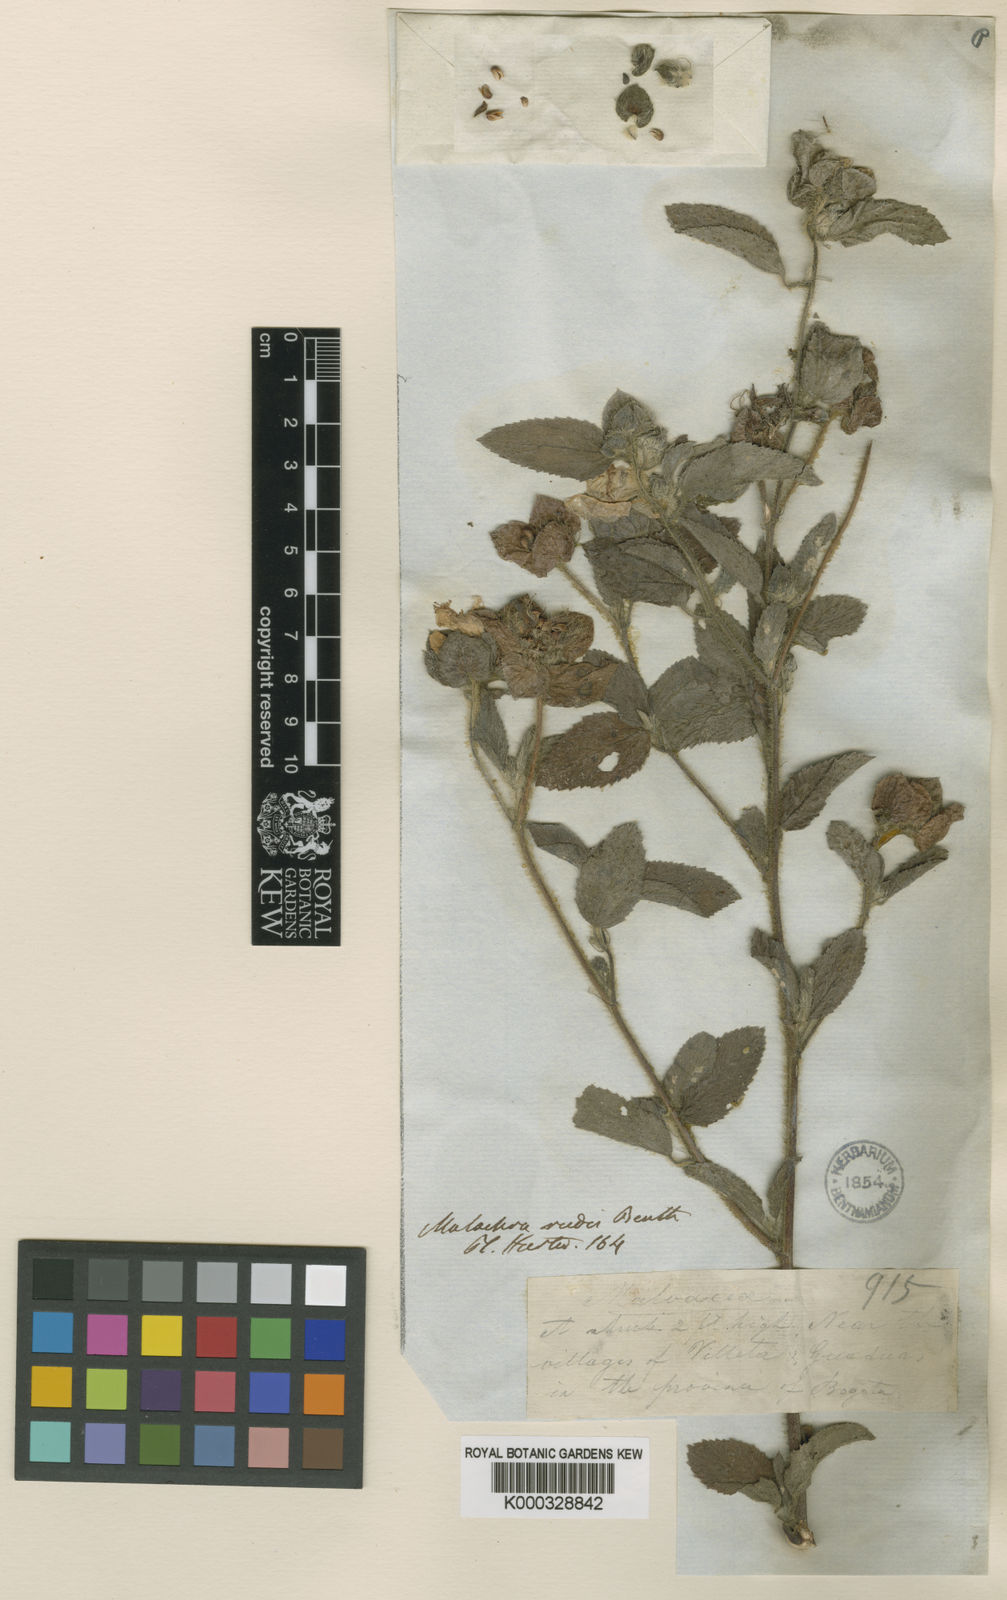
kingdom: Plantae
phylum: Tracheophyta
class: Magnoliopsida
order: Malvales
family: Malvaceae
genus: Malachra
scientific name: Malachra rudis
